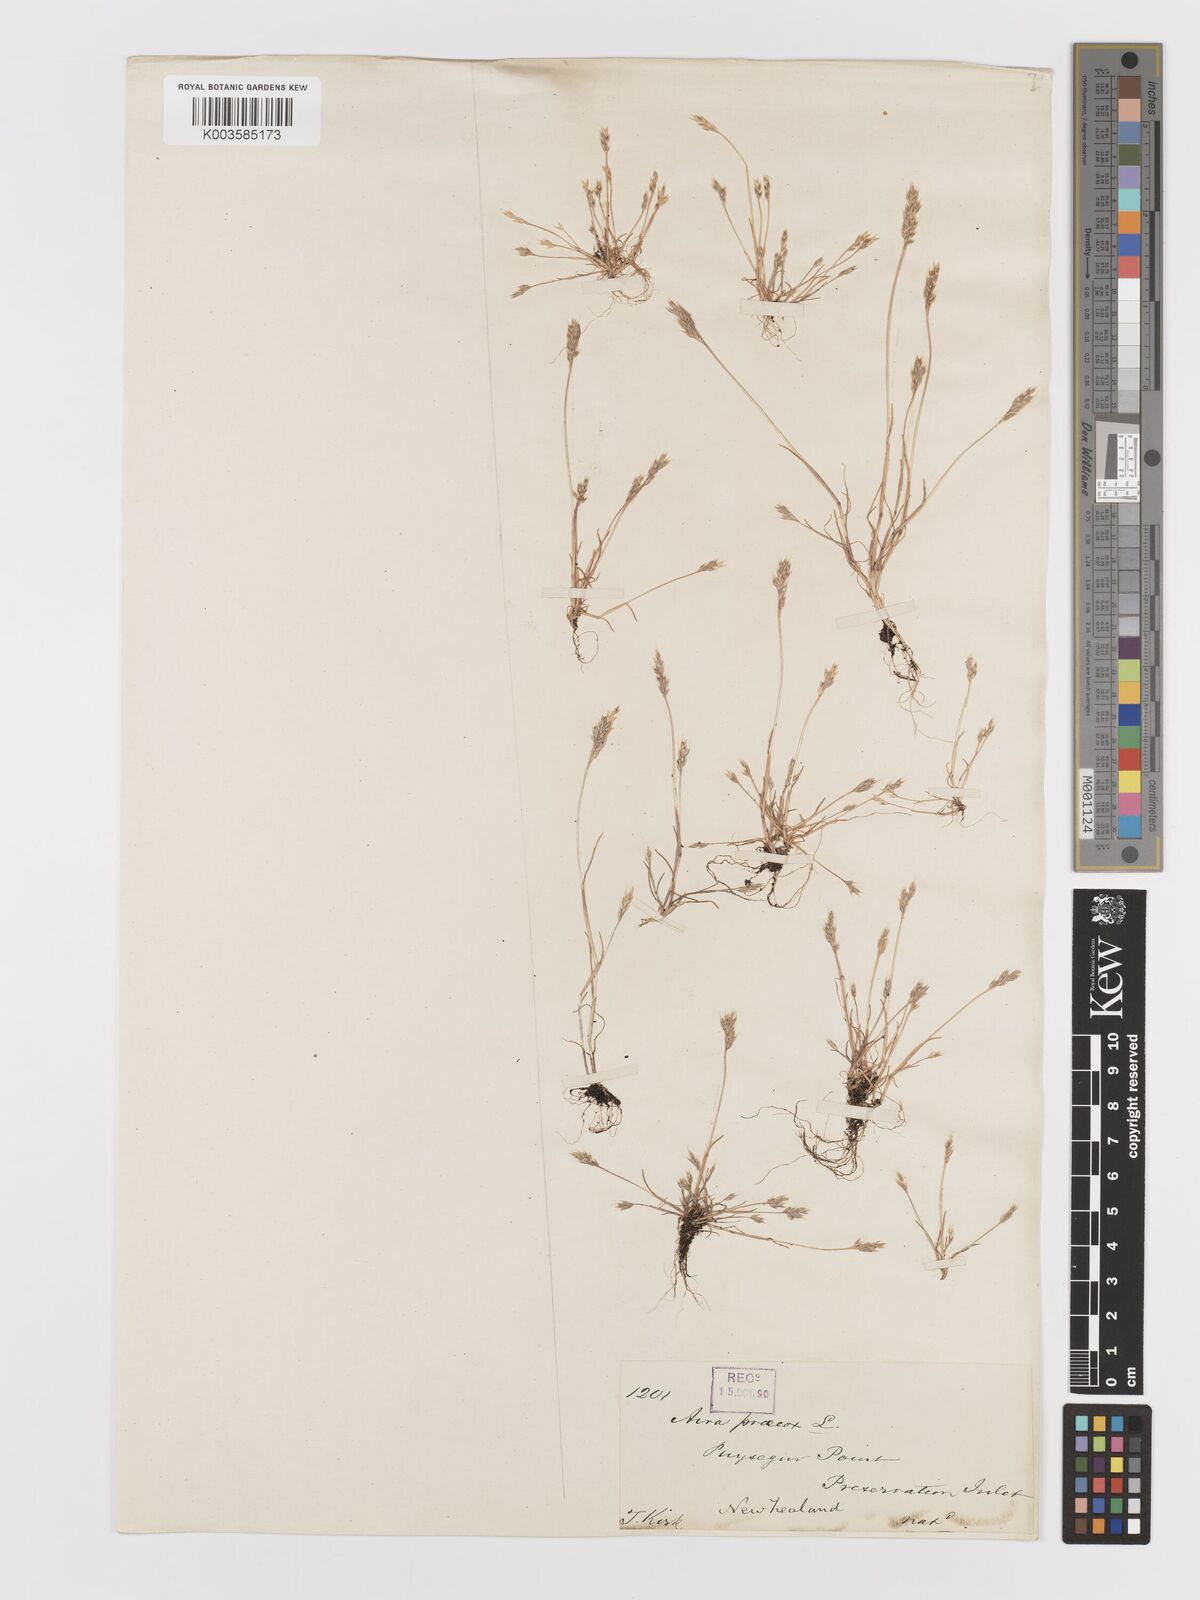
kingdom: Plantae
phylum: Tracheophyta
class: Liliopsida
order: Poales
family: Poaceae
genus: Aira
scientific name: Aira praecox
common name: Early hair-grass
